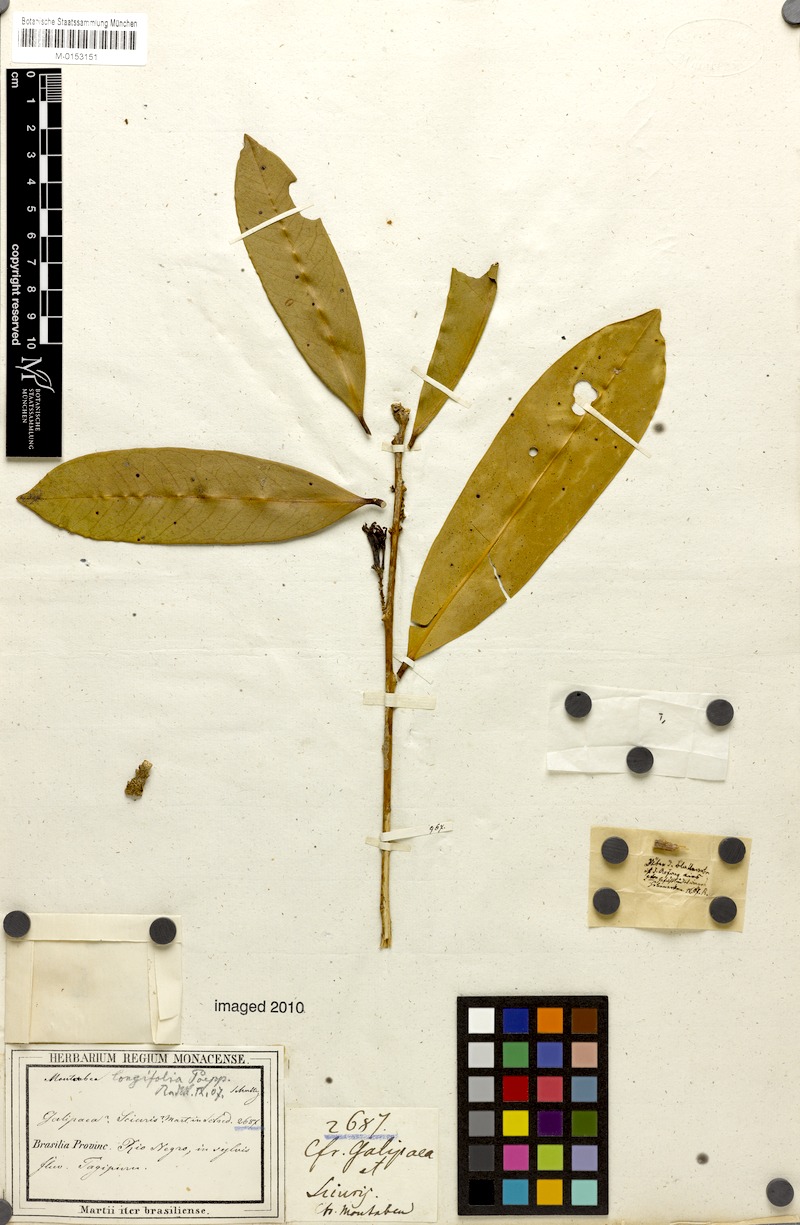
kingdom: Plantae
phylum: Tracheophyta
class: Magnoliopsida
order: Fabales
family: Polygalaceae
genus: Moutabea
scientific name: Moutabea aculeata
